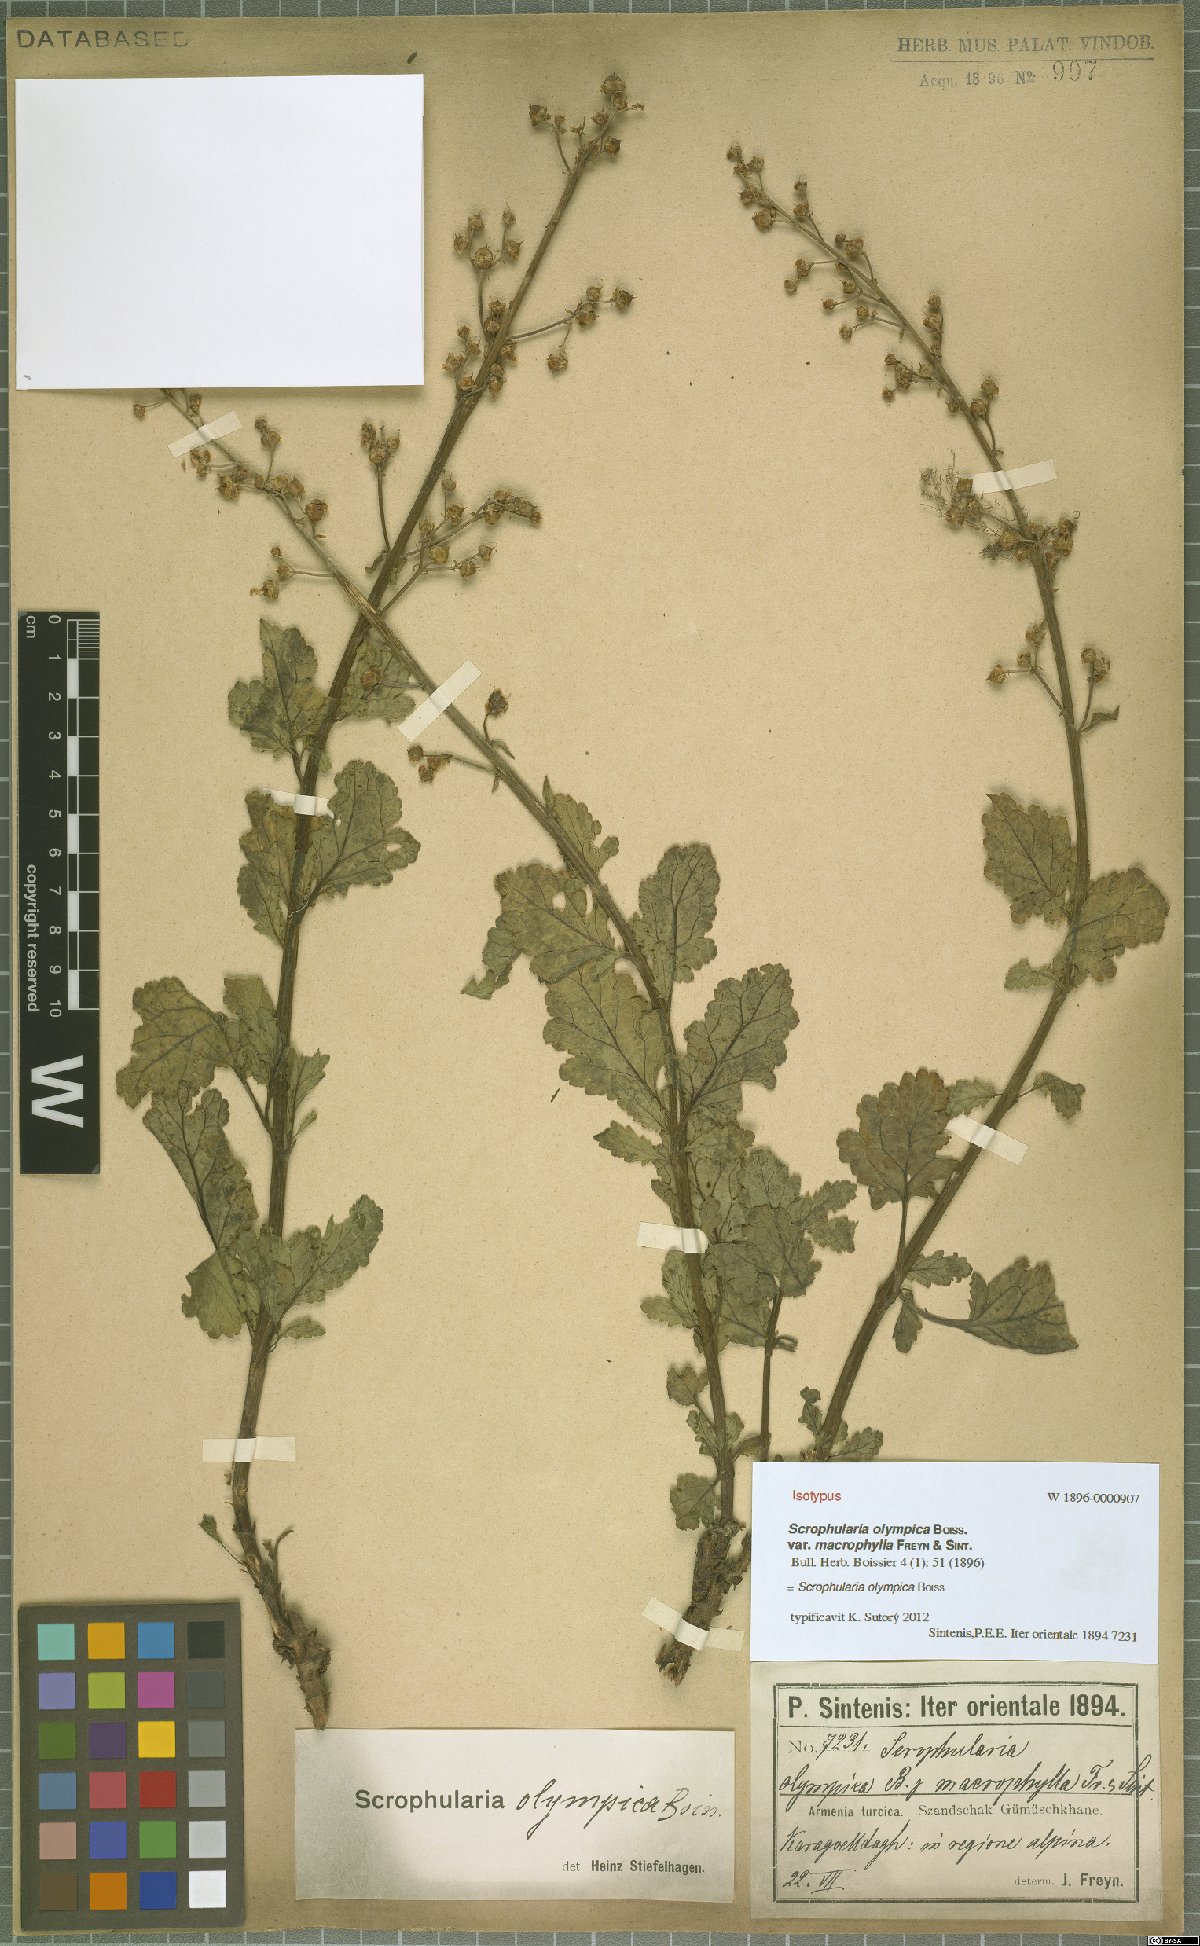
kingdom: Plantae
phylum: Tracheophyta
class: Magnoliopsida
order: Lamiales
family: Scrophulariaceae
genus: Scrophularia
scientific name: Scrophularia olympica
